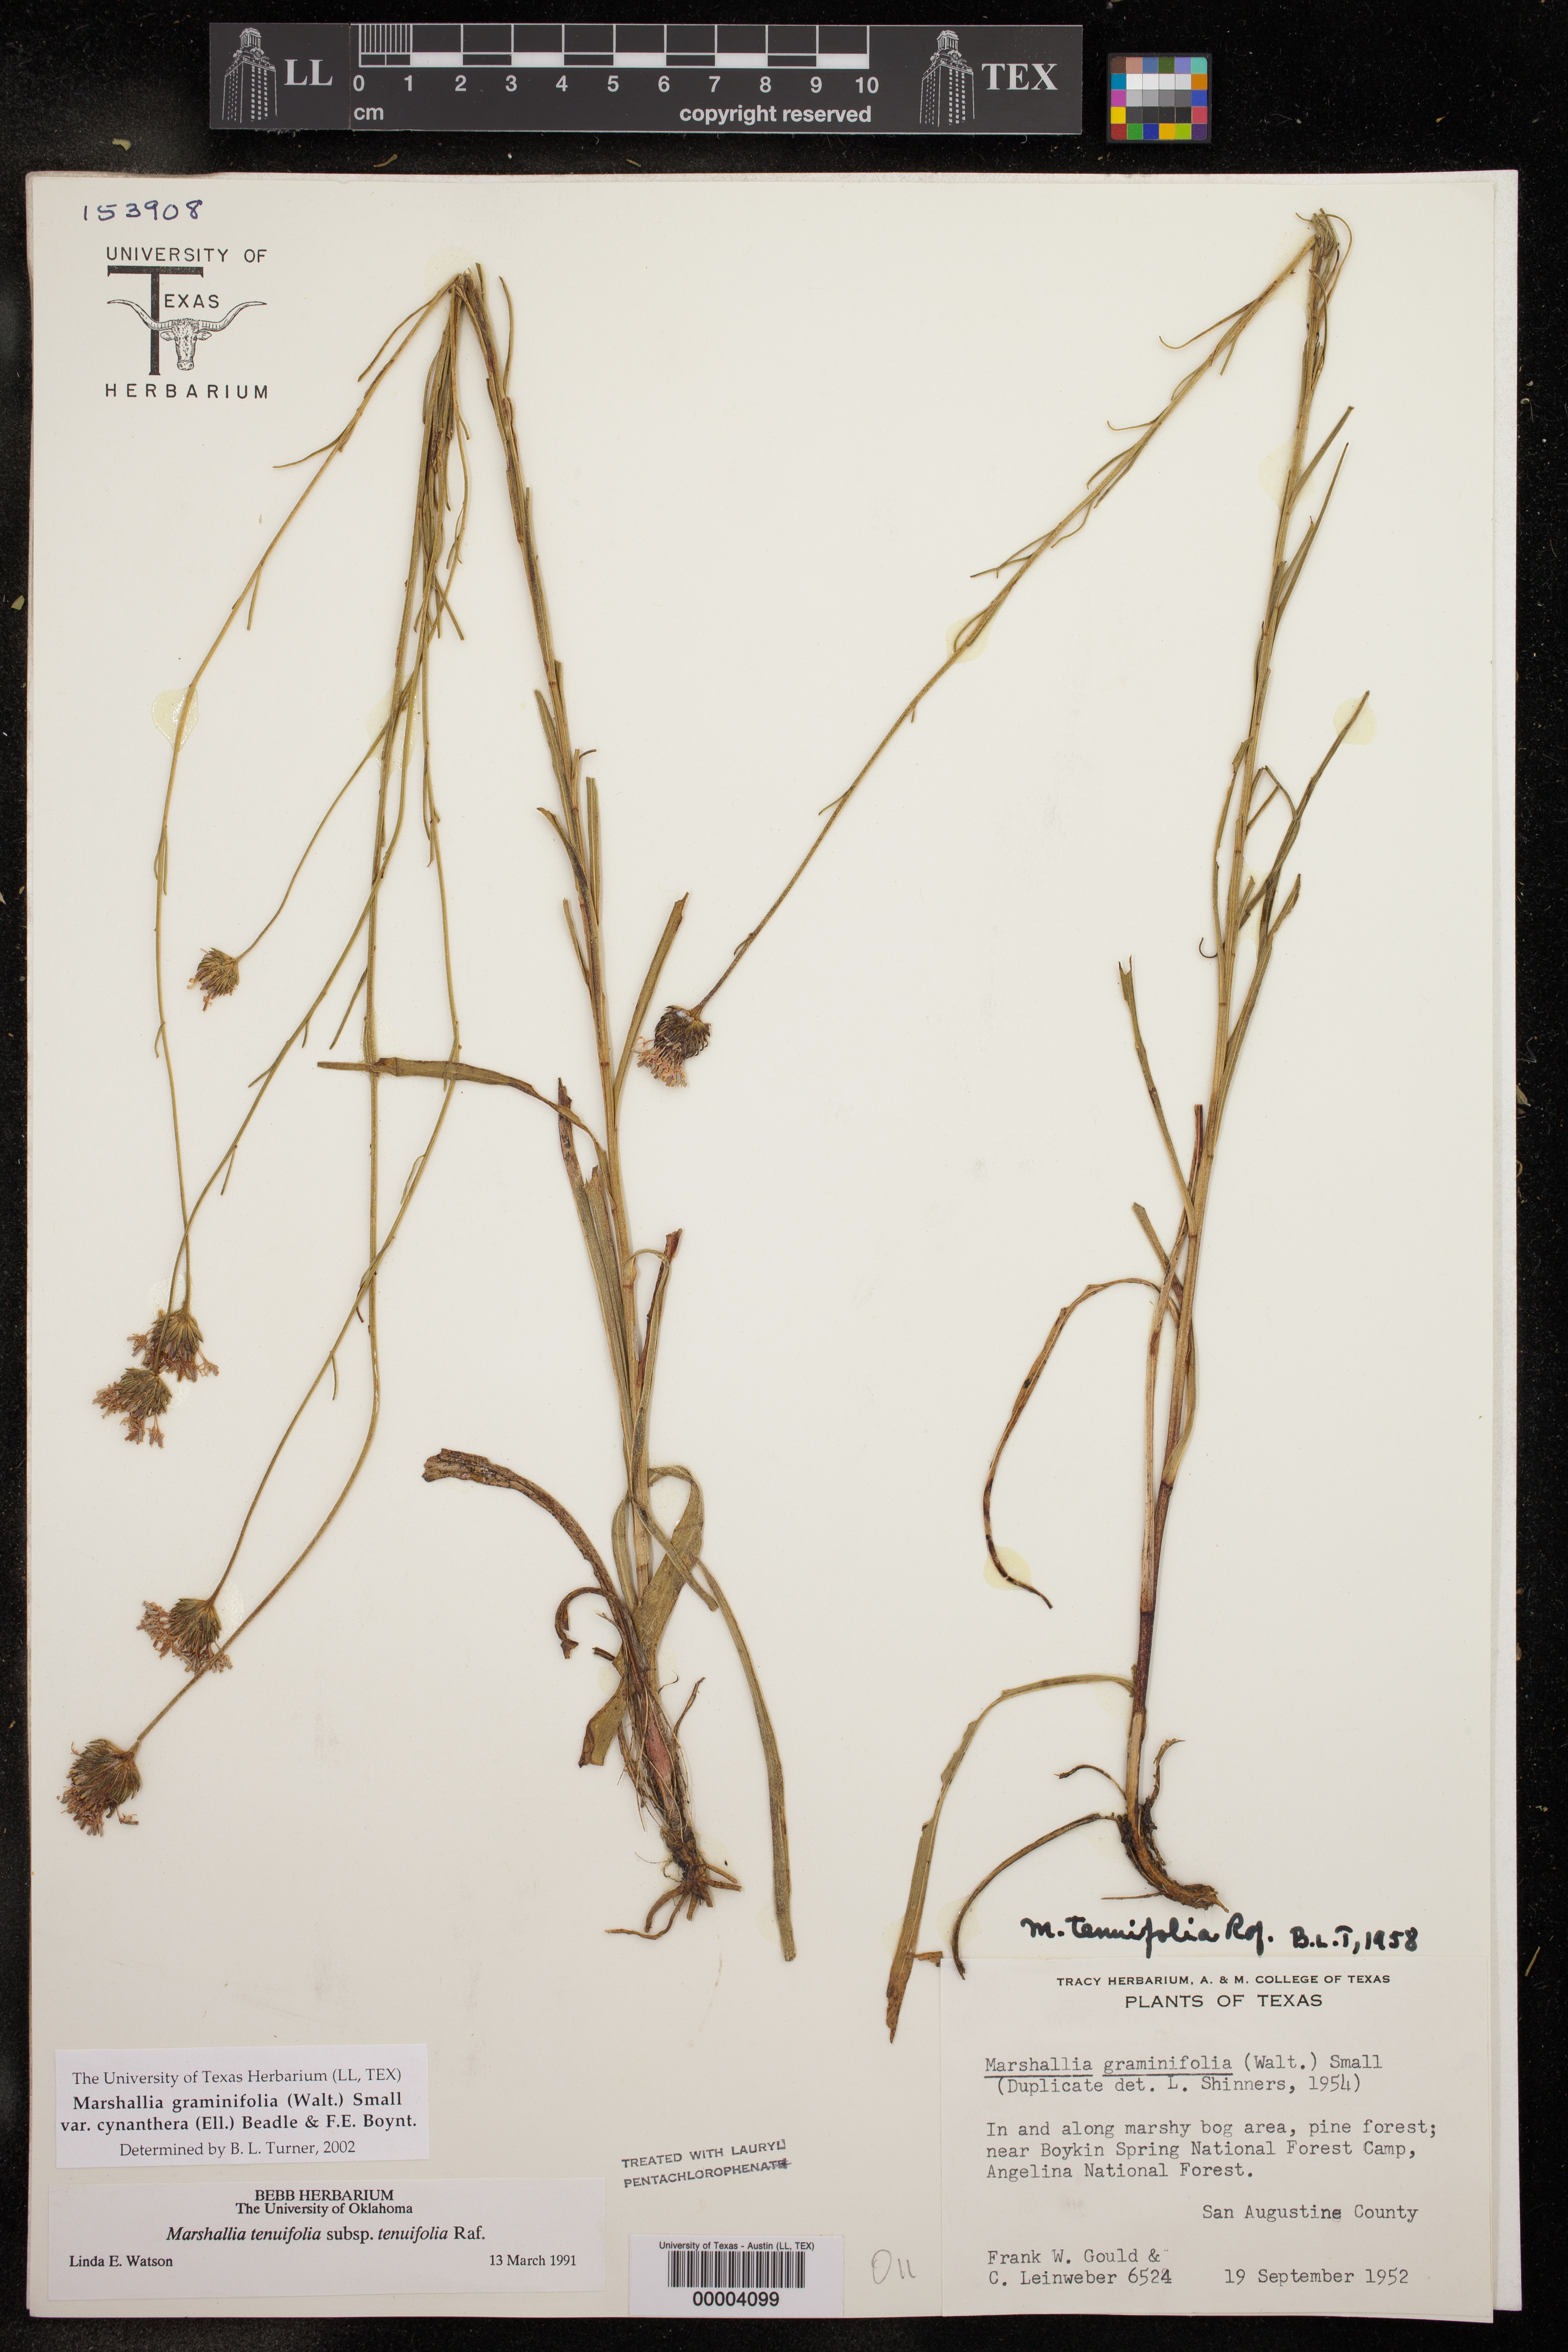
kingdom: Plantae
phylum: Tracheophyta
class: Magnoliopsida
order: Asterales
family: Asteraceae
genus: Vernonia
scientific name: Vernonia angustifolia
